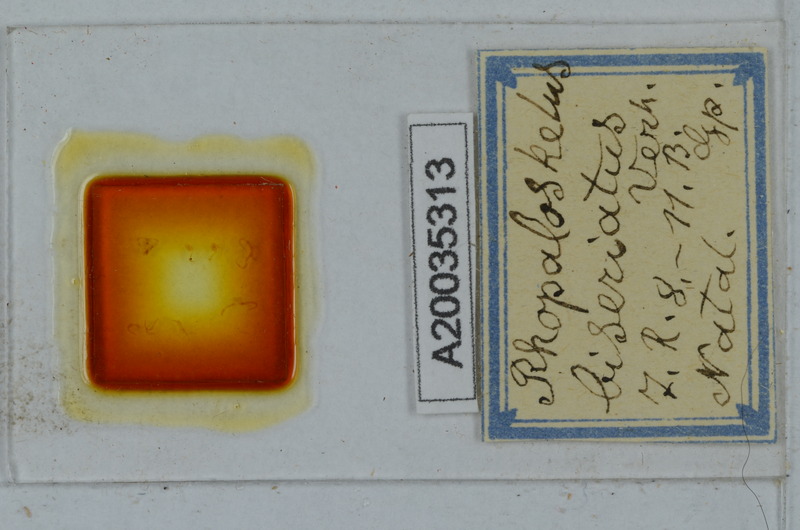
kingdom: Animalia
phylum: Arthropoda
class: Diplopoda
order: Polydesmida
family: Dalodesmidae
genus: Rhopaloskelus
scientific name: Rhopaloskelus biseriatus
